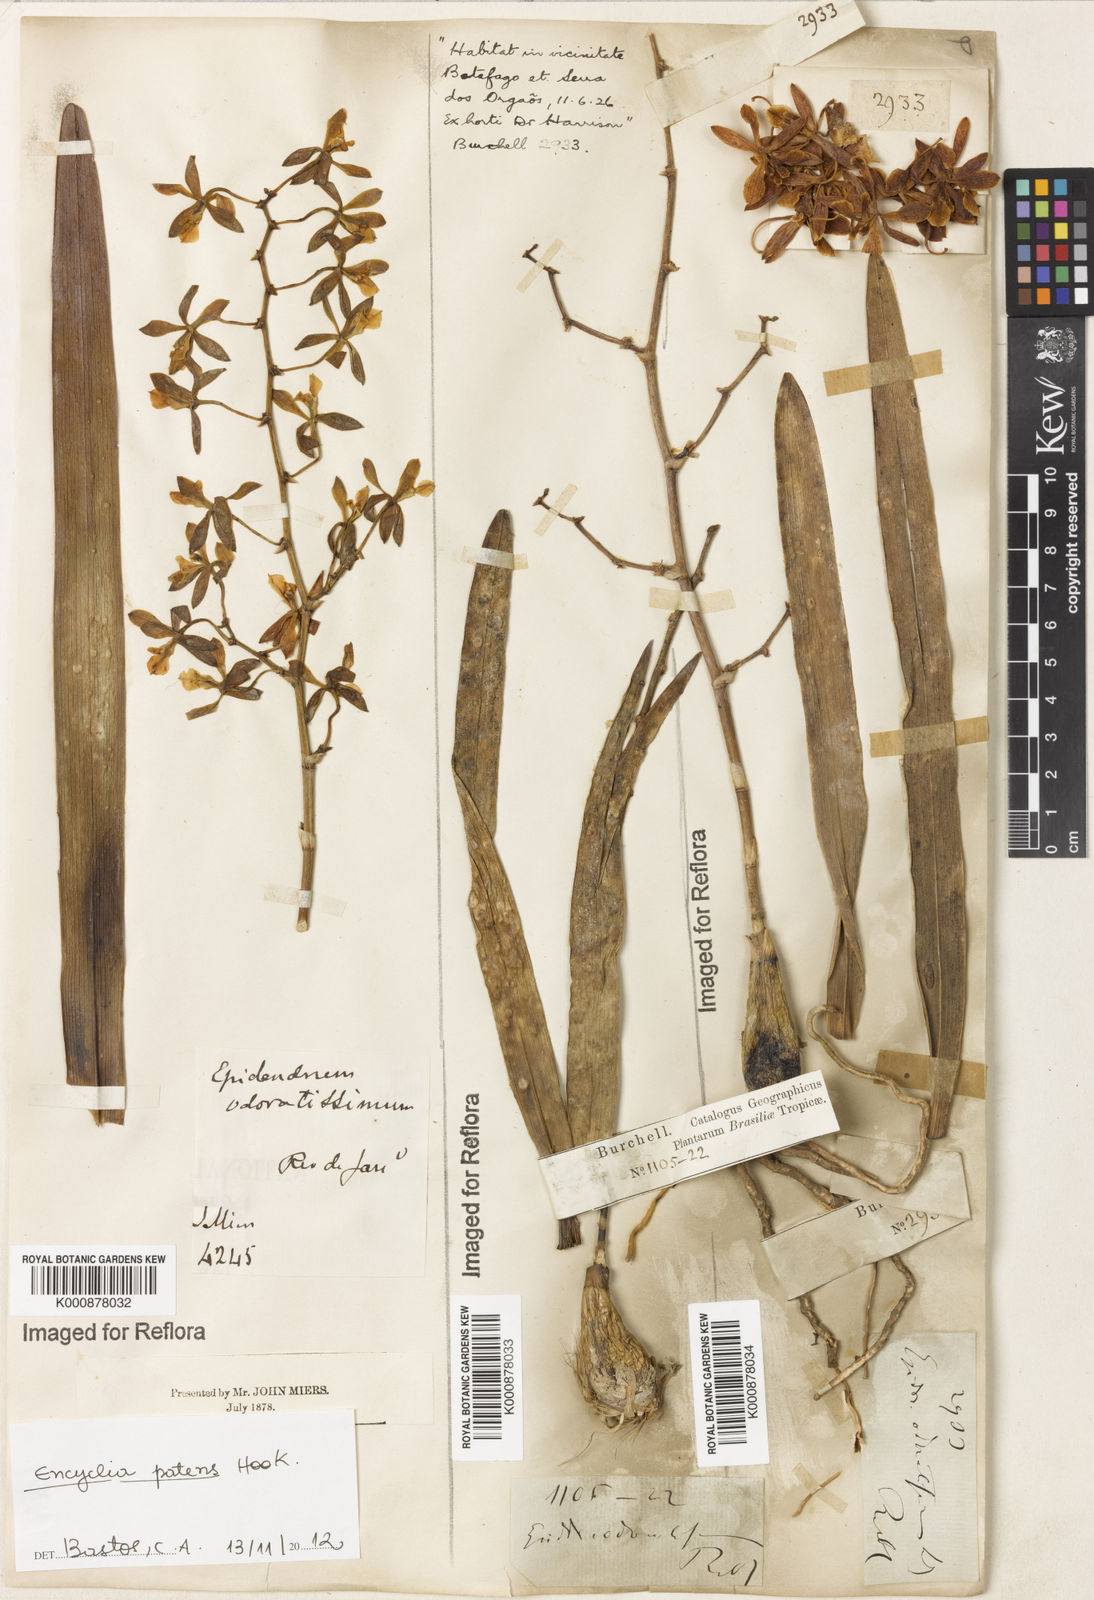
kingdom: Plantae
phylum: Tracheophyta
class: Liliopsida
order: Asparagales
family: Orchidaceae
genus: Encyclia
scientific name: Encyclia patens
